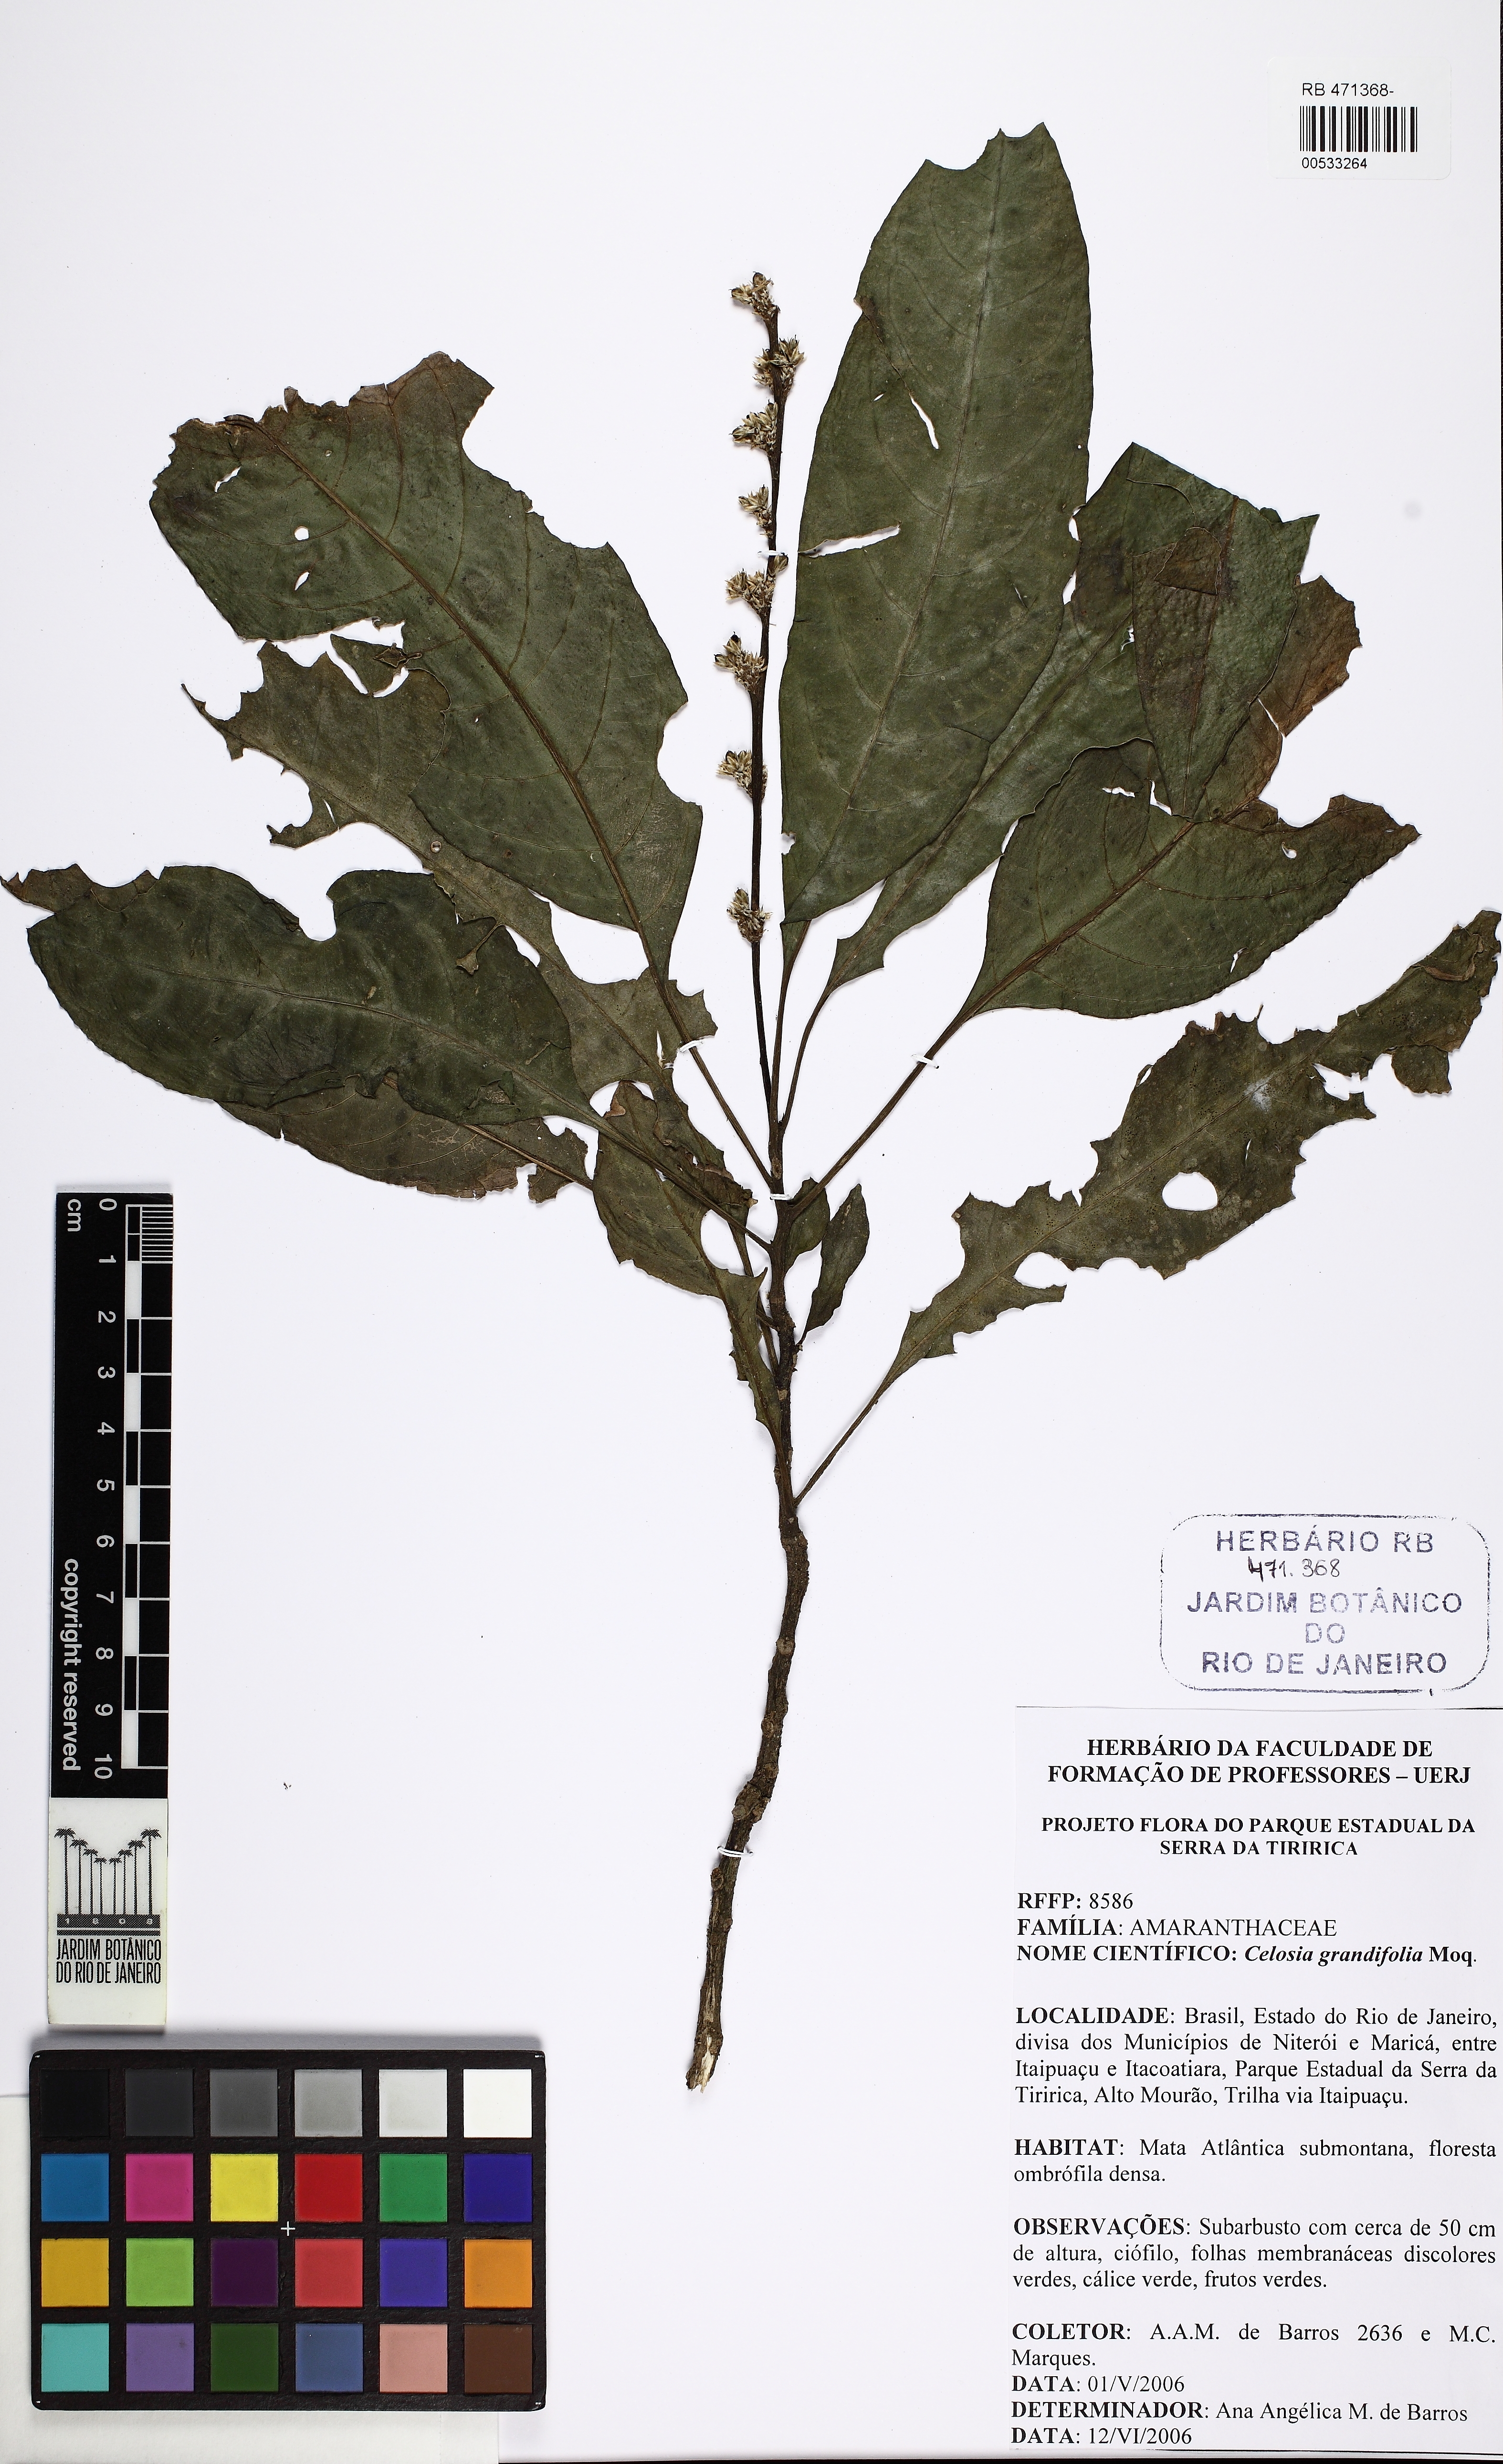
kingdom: Plantae
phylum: Tracheophyta
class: Magnoliopsida
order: Caryophyllales
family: Amaranthaceae
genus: Celosia
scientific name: Celosia grandifolia
